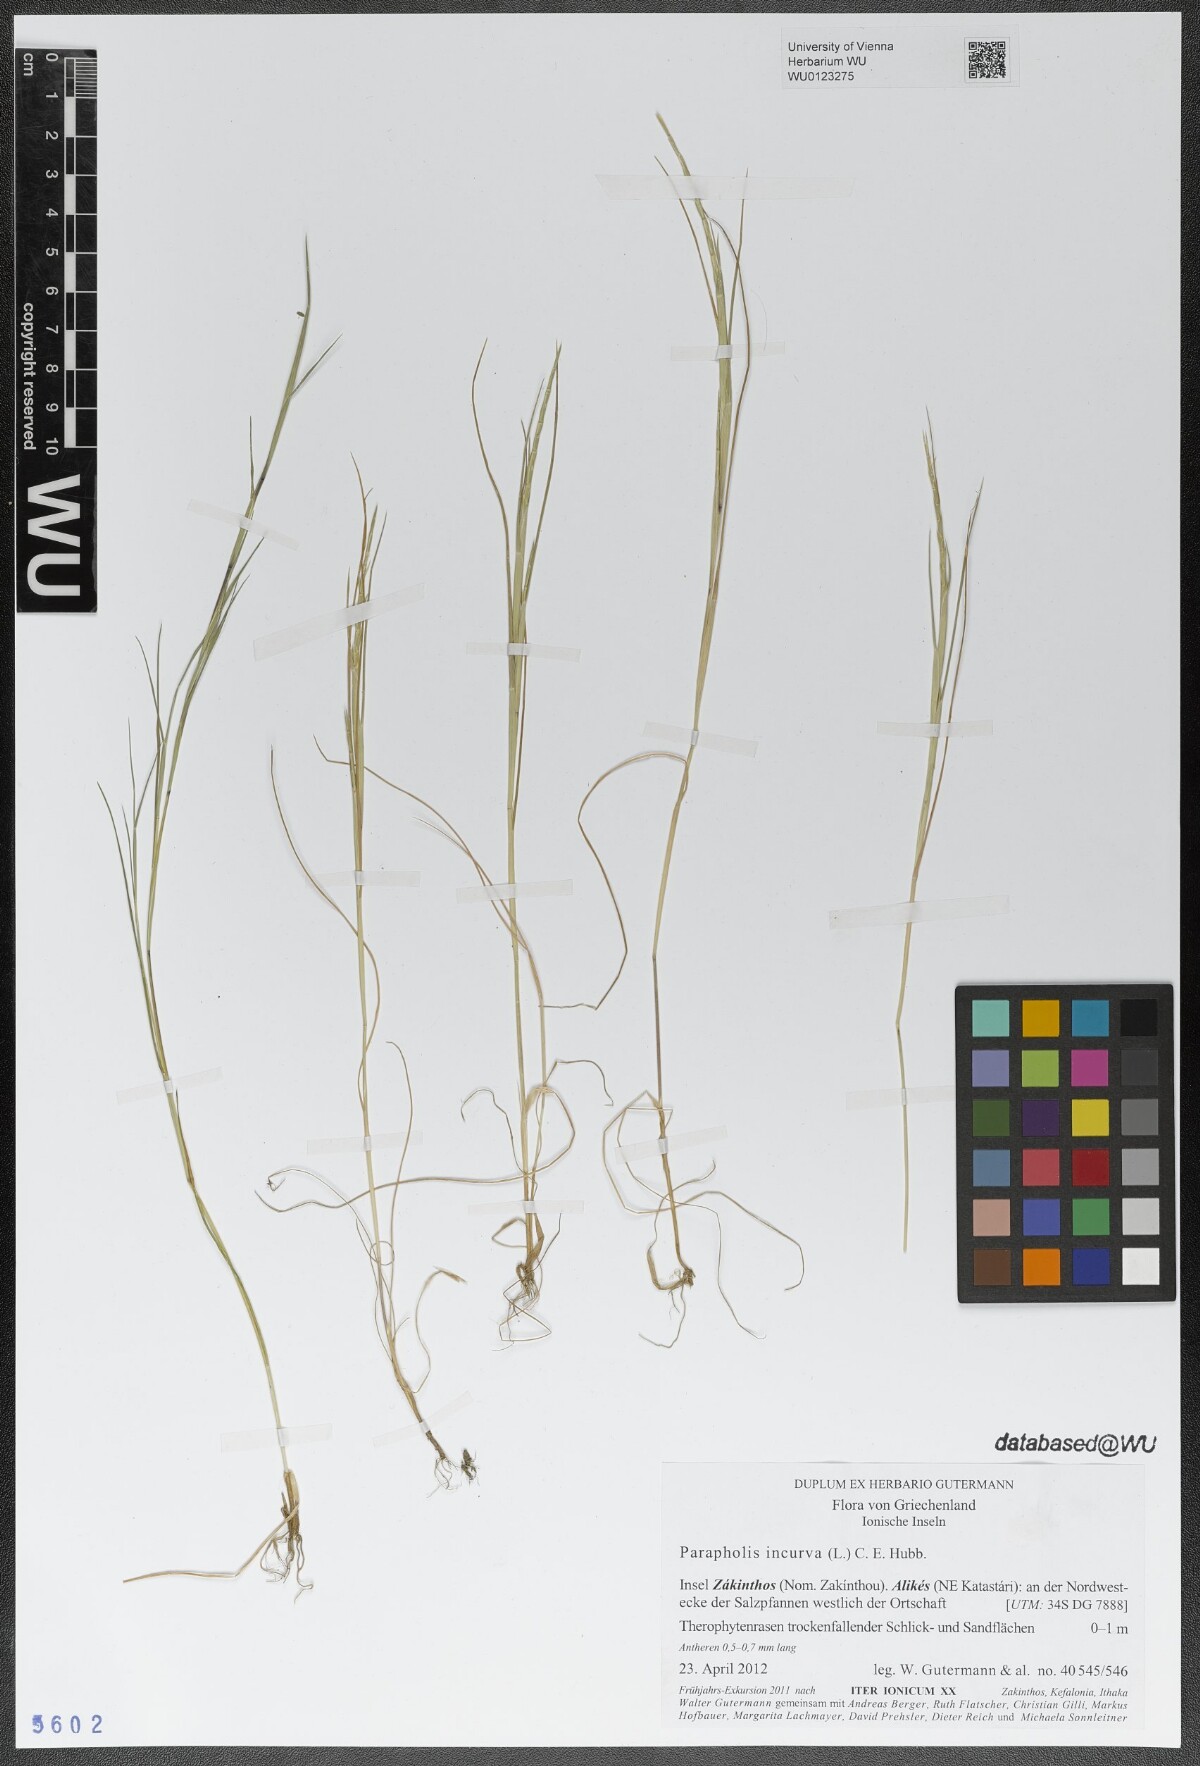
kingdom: Plantae
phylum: Tracheophyta
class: Liliopsida
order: Poales
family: Poaceae
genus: Parapholis
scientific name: Parapholis incurva
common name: Curved sicklegrass
